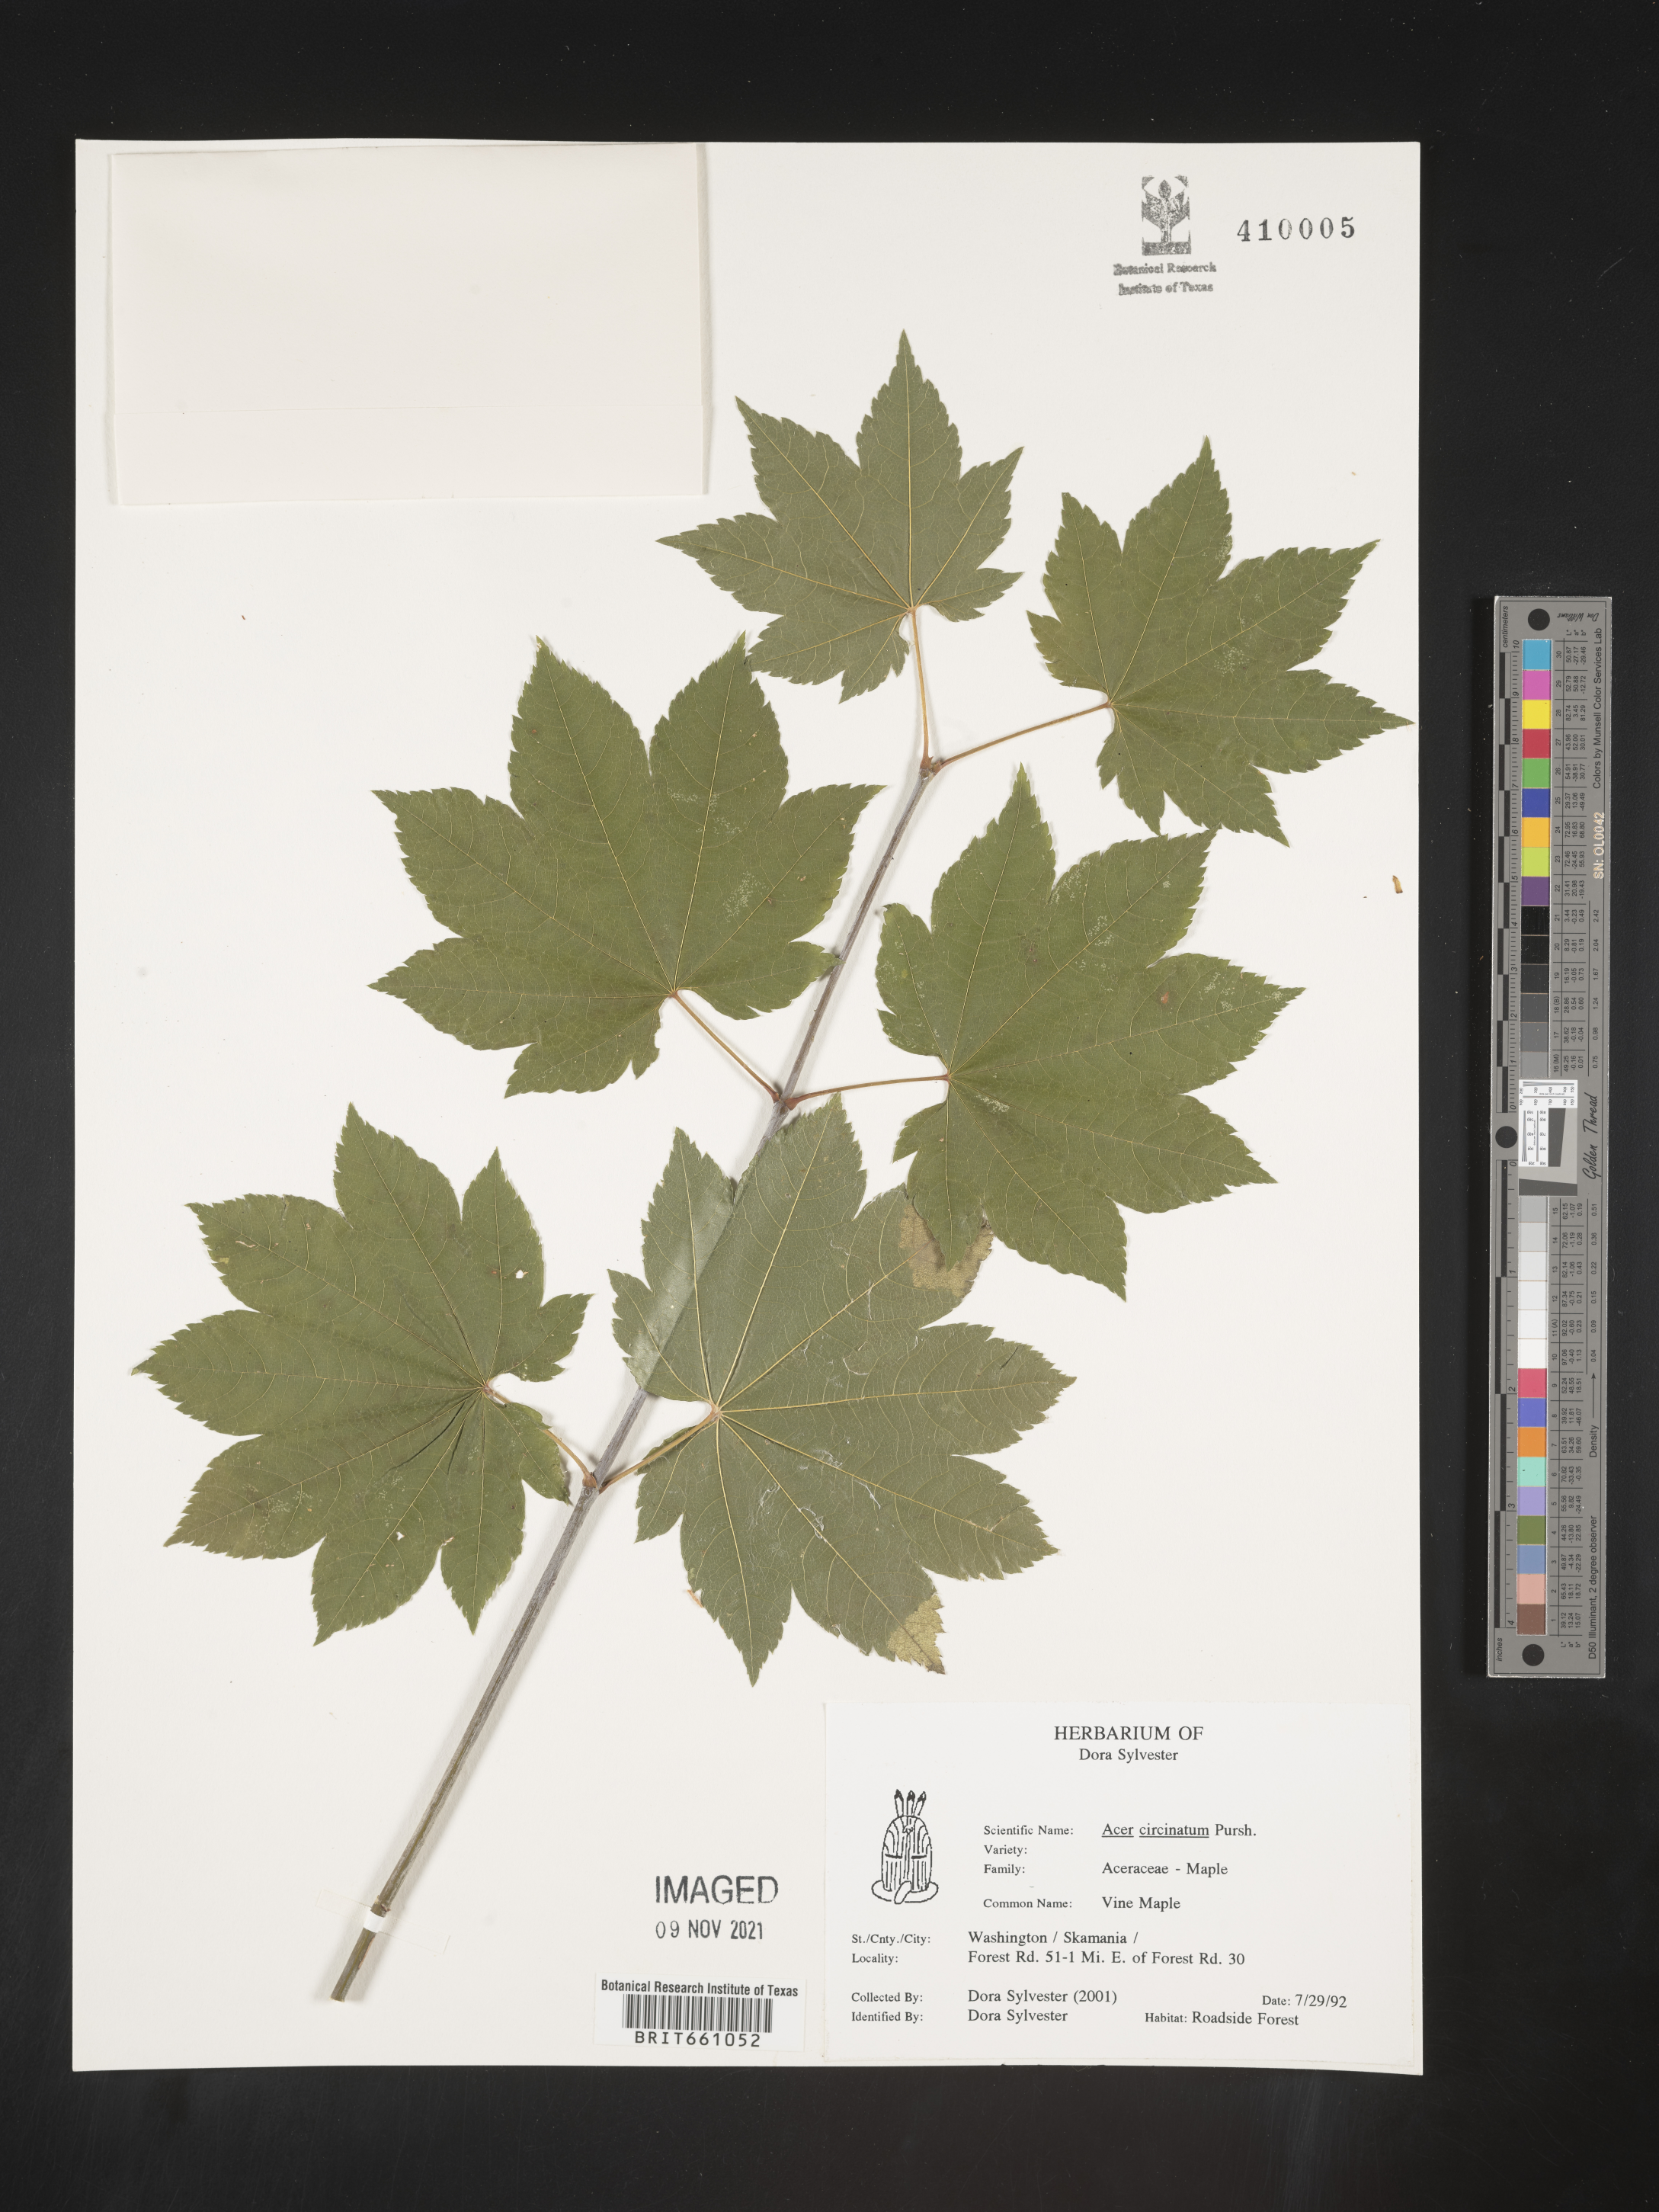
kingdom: Plantae
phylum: Tracheophyta
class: Magnoliopsida
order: Sapindales
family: Sapindaceae
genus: Acer
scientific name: Acer circinatum
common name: Vine maple
